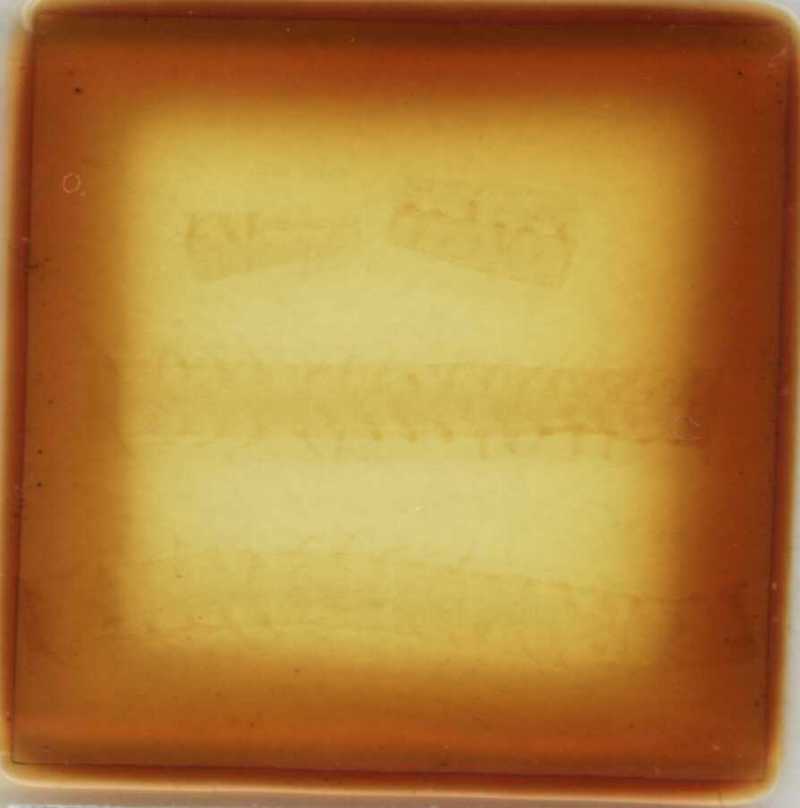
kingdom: Animalia
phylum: Arthropoda
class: Chilopoda
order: Geophilomorpha
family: Himantariidae
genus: Polyporogaster
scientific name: Polyporogaster turkestana
